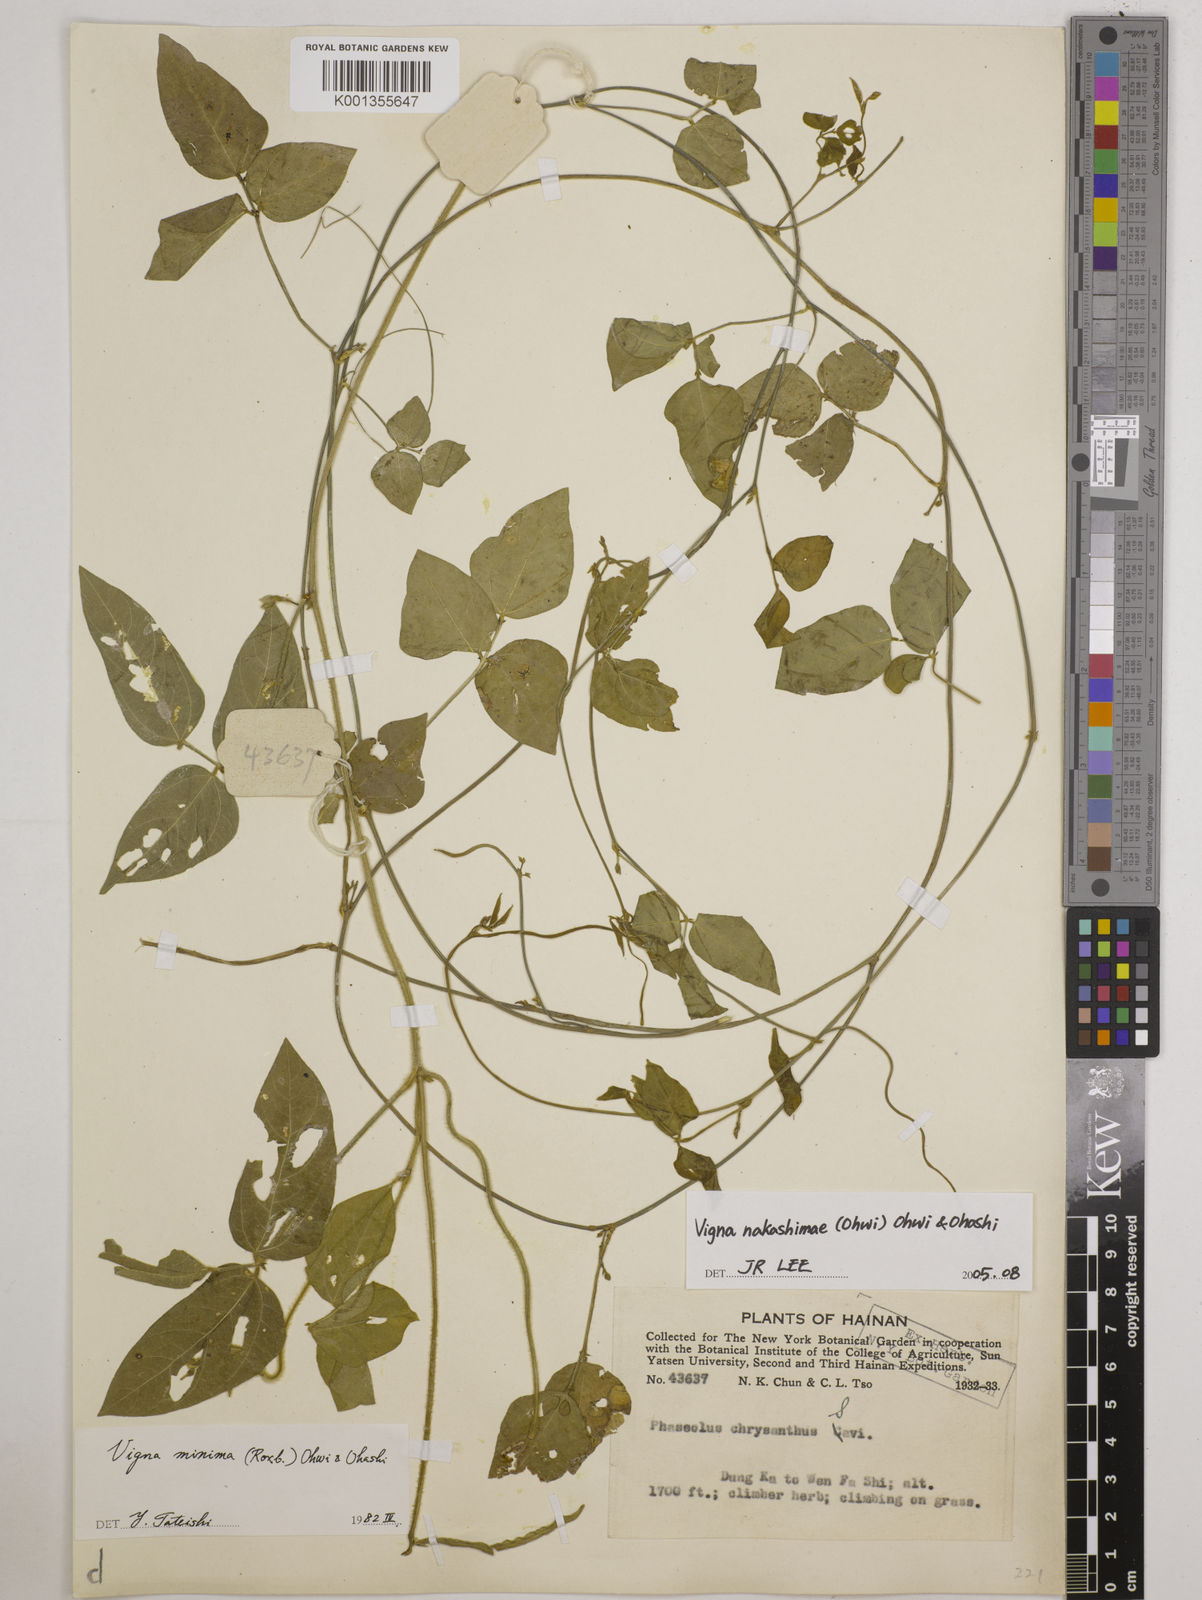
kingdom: Plantae
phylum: Tracheophyta
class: Magnoliopsida
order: Fabales
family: Fabaceae
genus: Vigna
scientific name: Vigna minima
